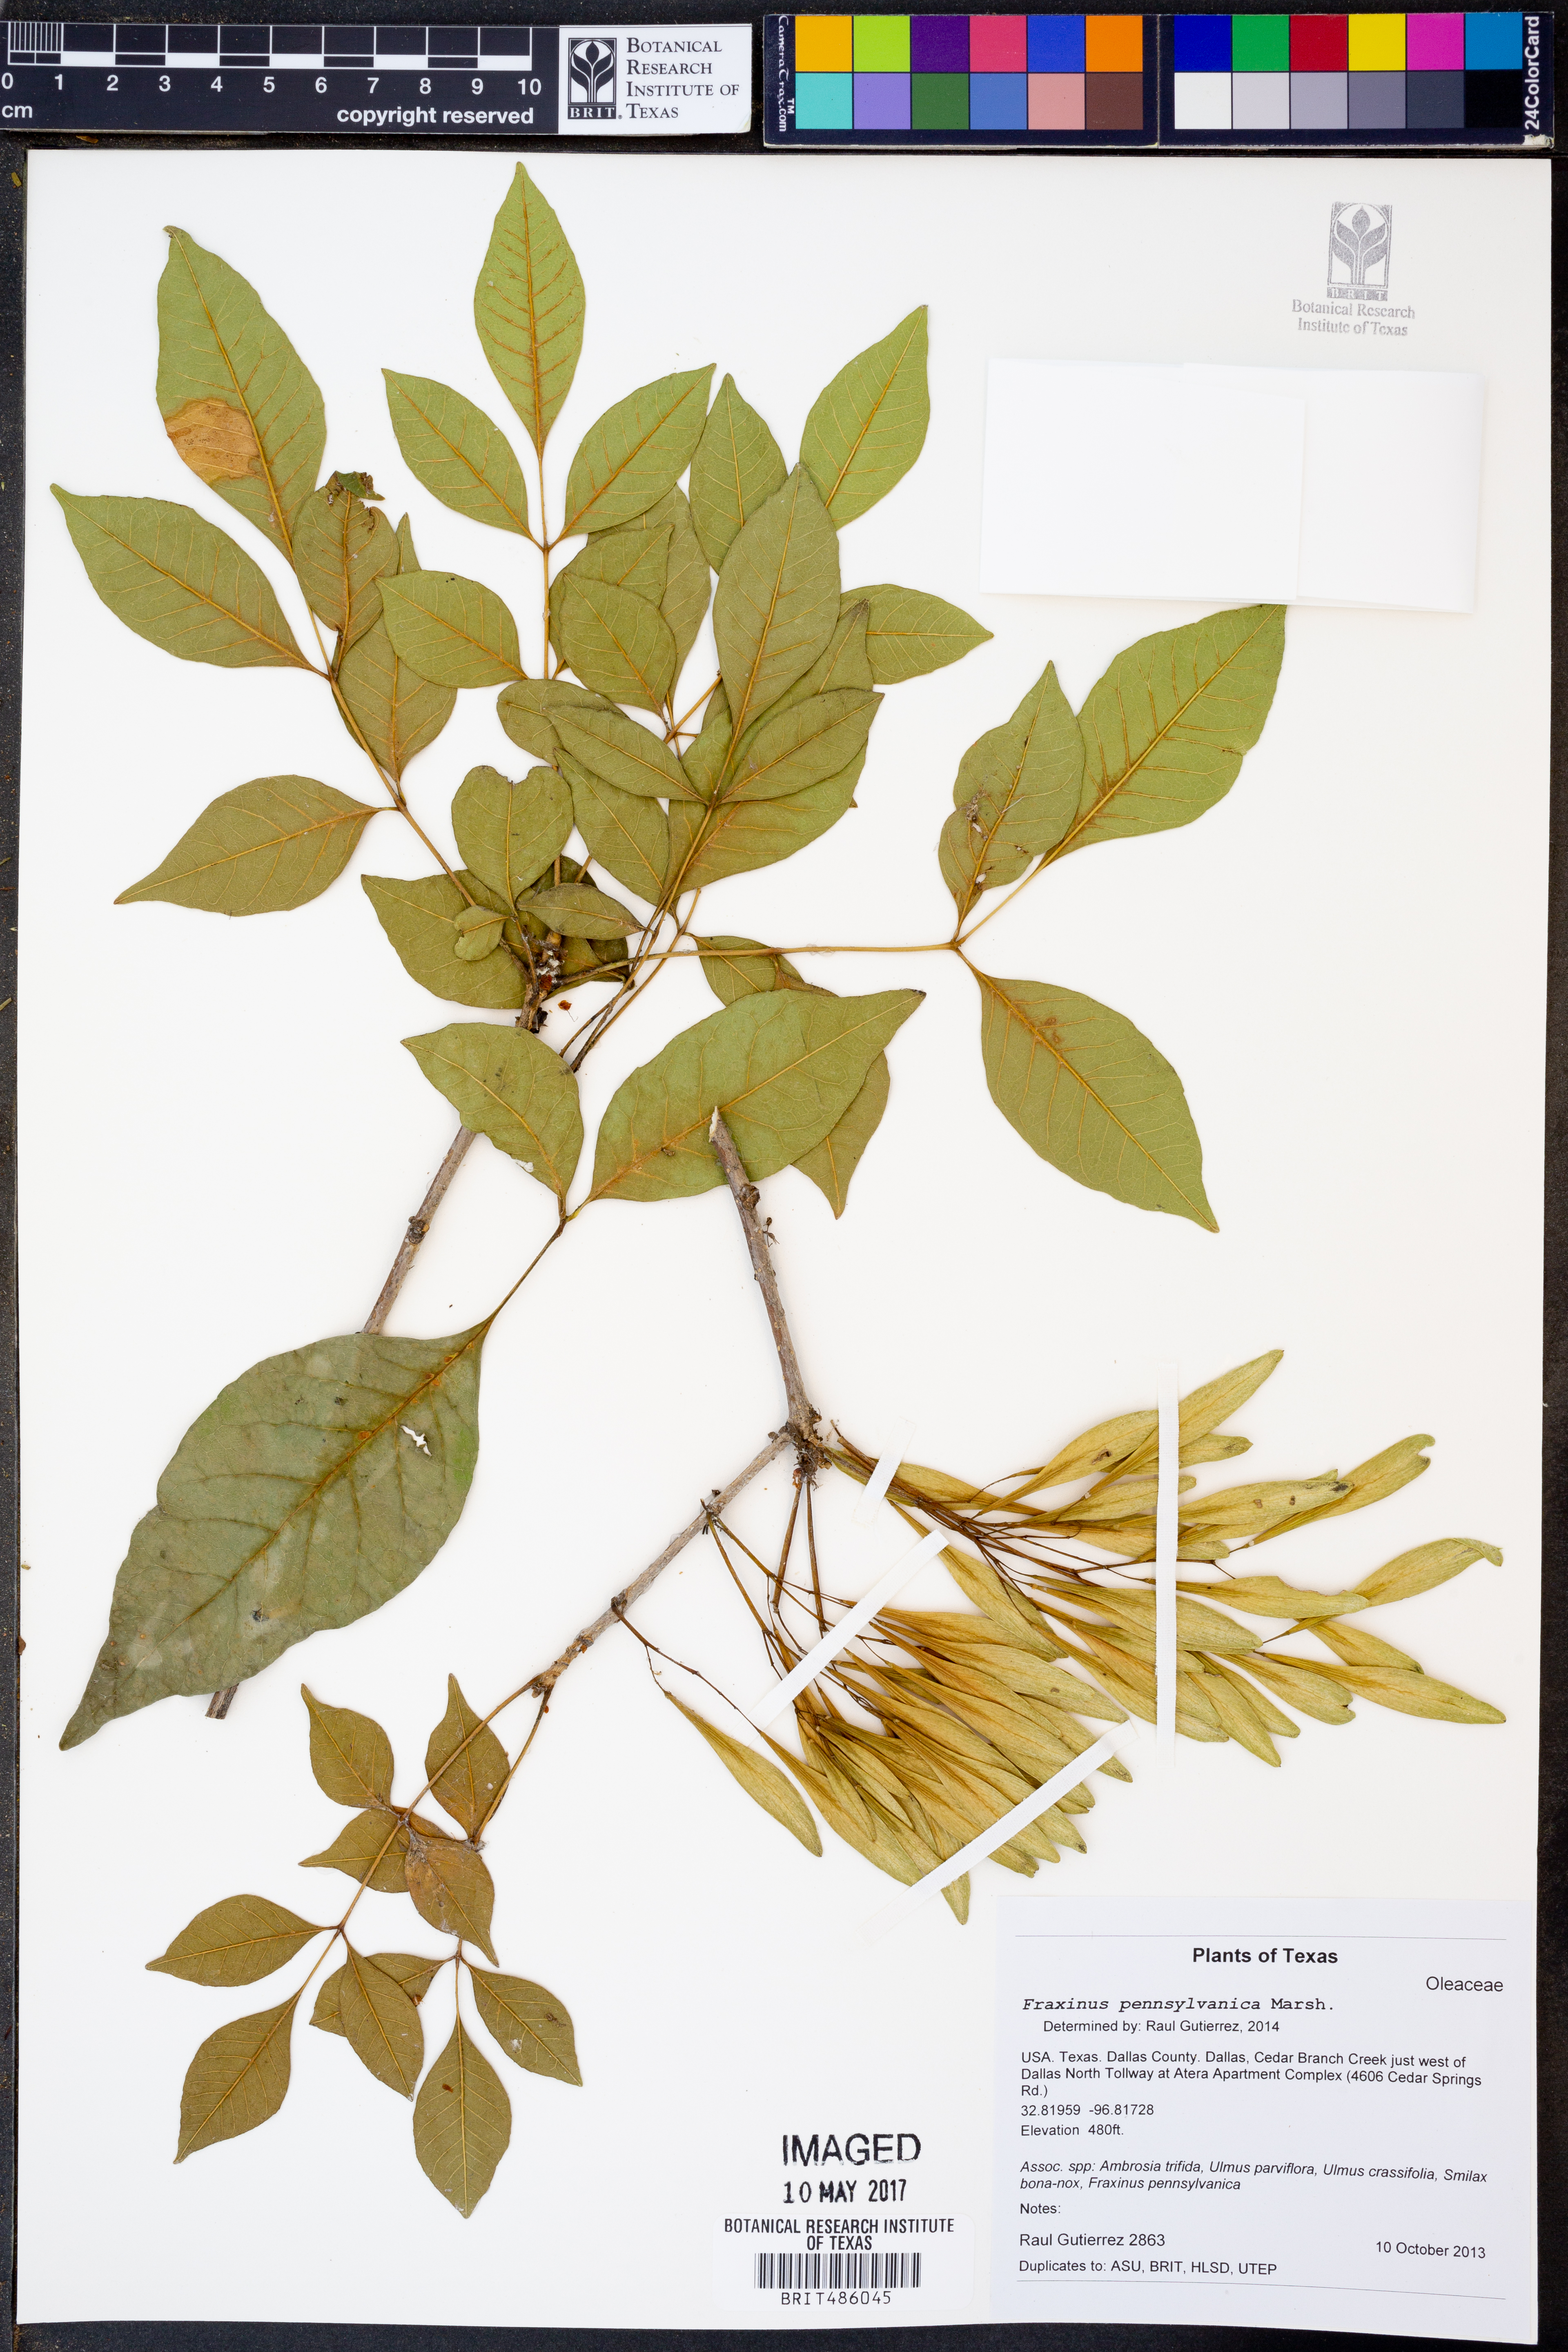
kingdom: Plantae
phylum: Tracheophyta
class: Magnoliopsida
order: Lamiales
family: Oleaceae
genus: Fraxinus
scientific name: Fraxinus pennsylvanica
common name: Green ash
